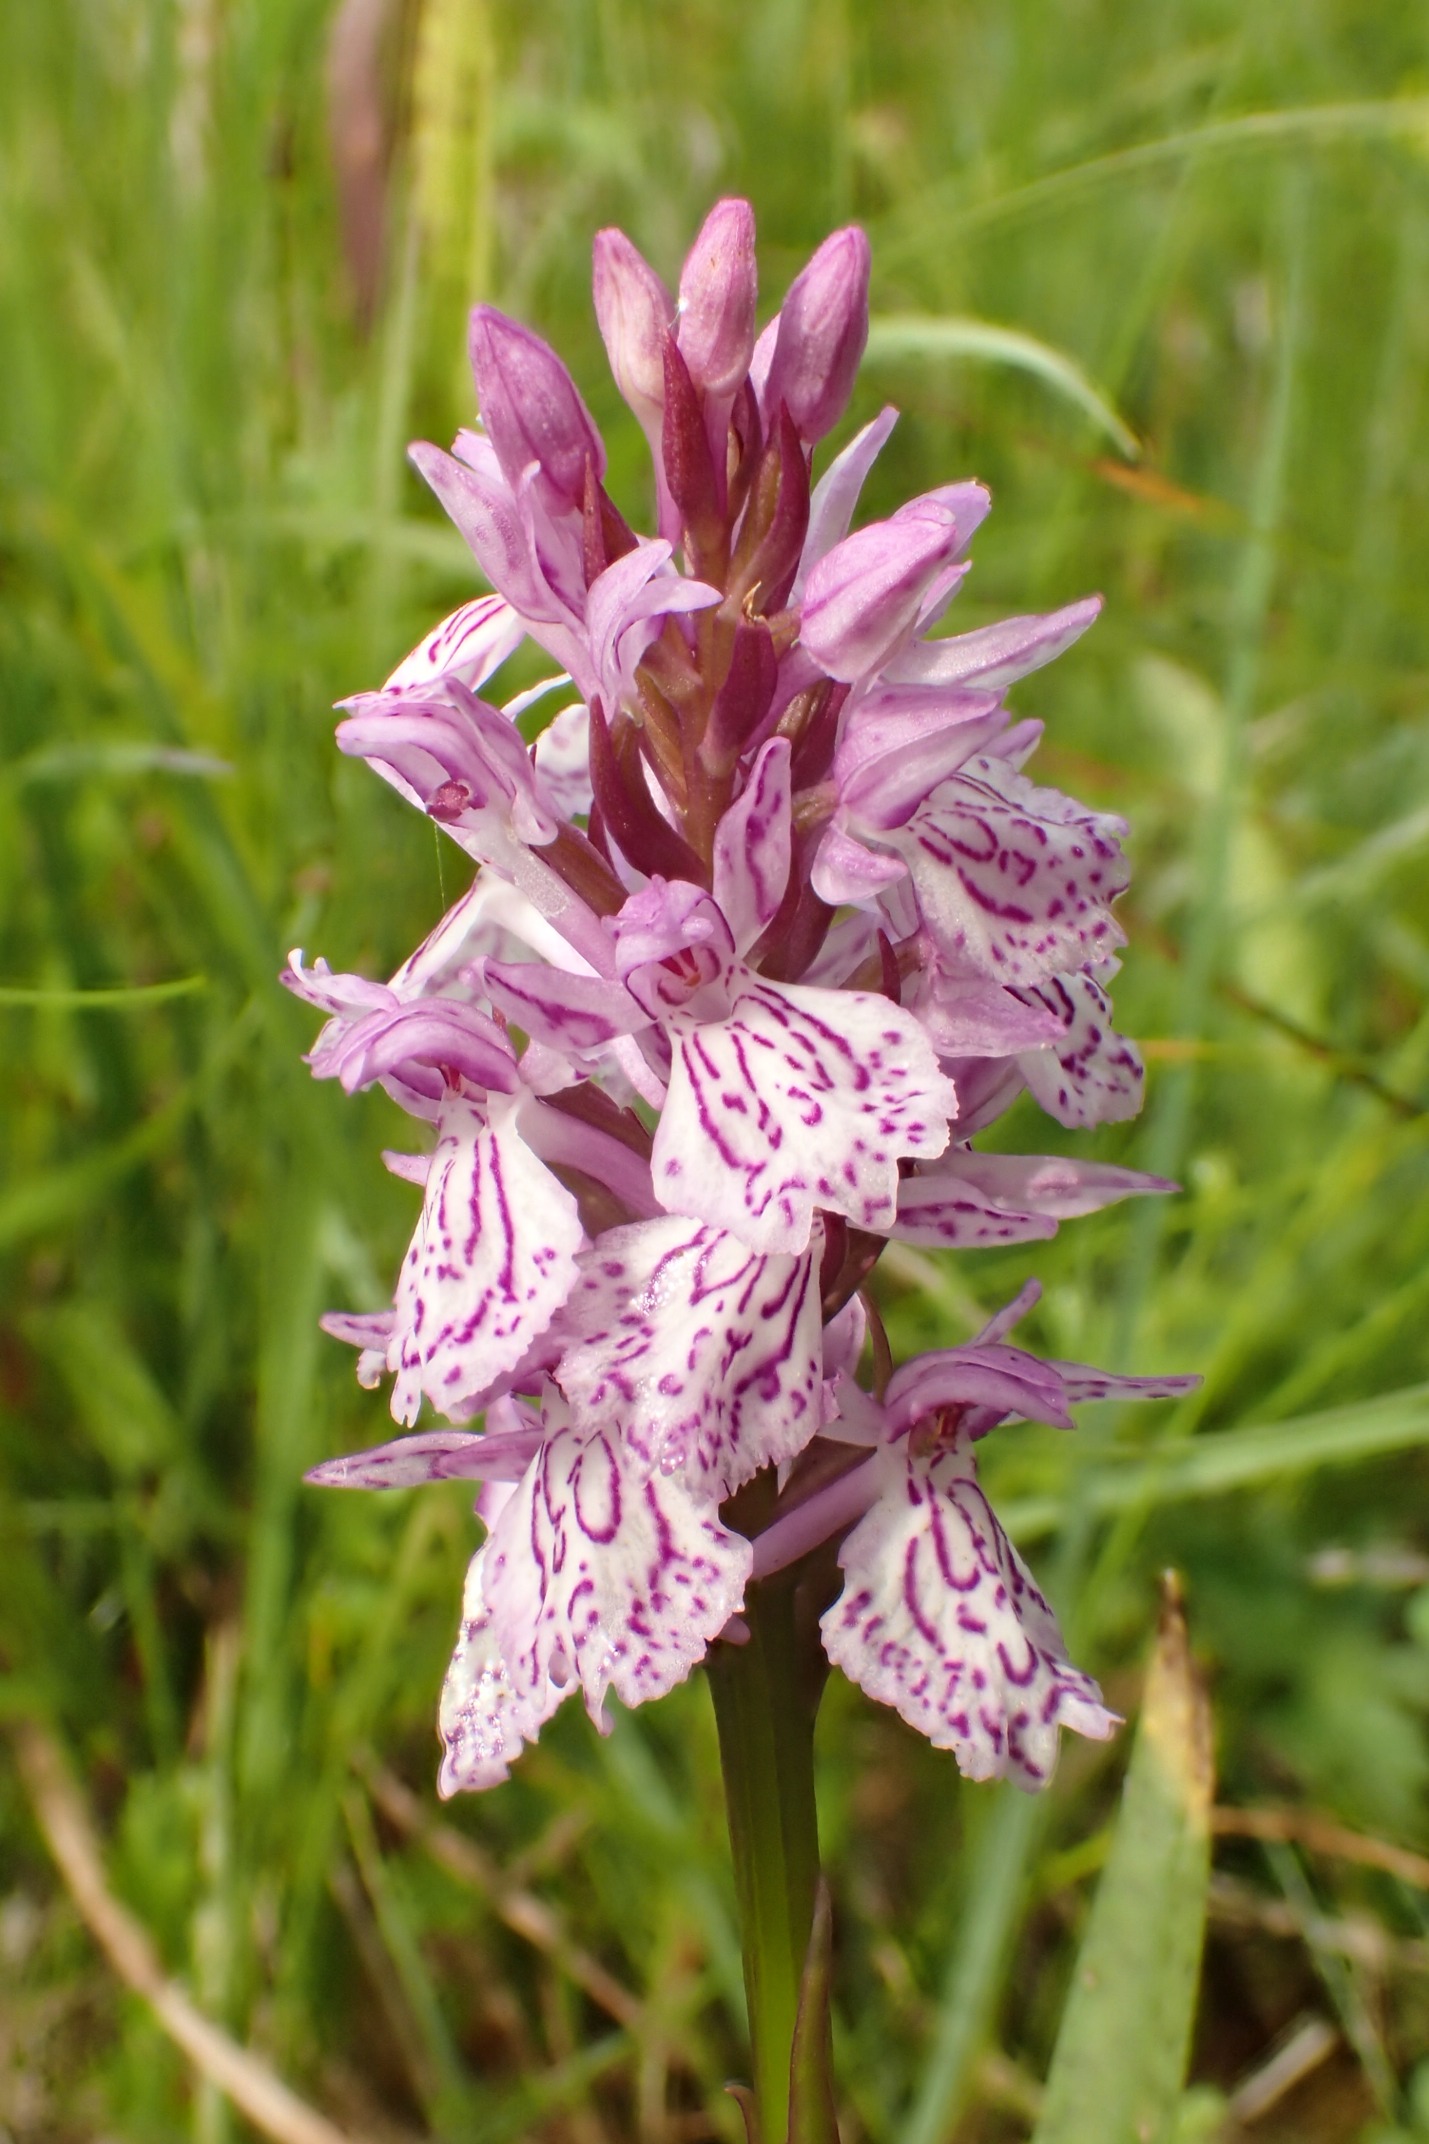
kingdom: Plantae
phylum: Tracheophyta
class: Liliopsida
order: Asparagales
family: Orchidaceae
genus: Dactylorhiza
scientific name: Dactylorhiza maculata
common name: Plettet gøgeurt
